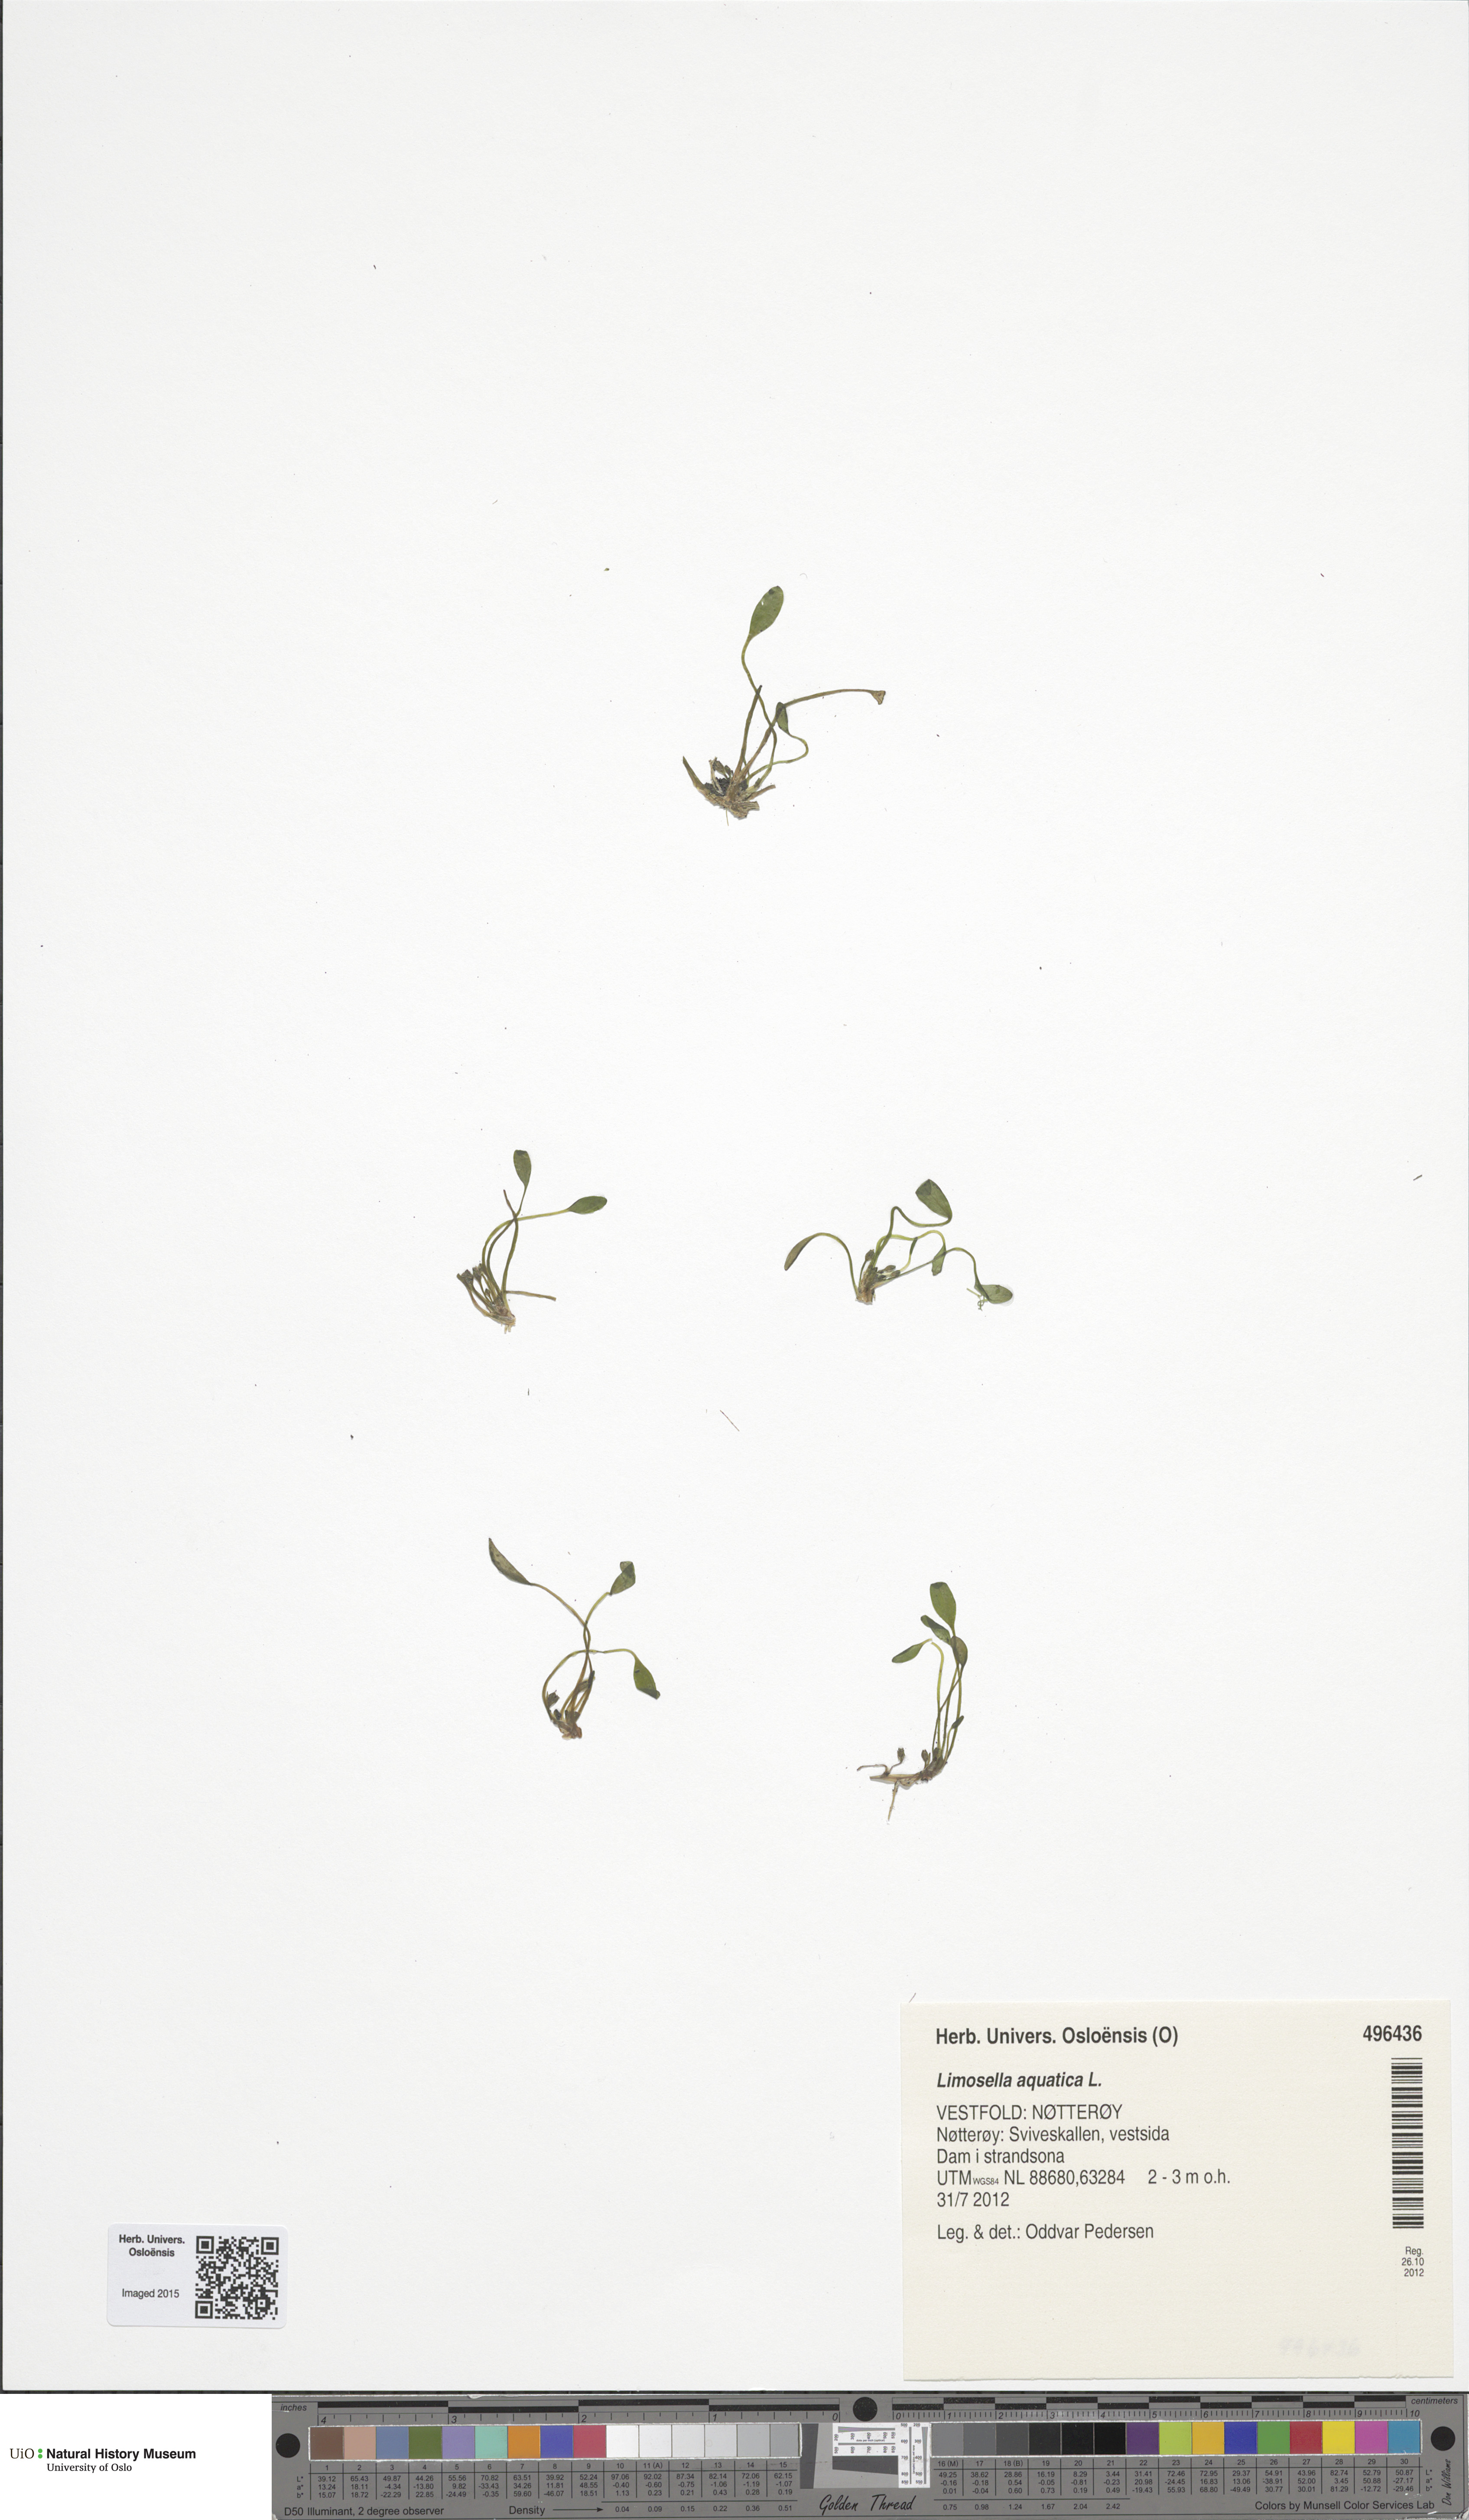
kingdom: Plantae
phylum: Tracheophyta
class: Magnoliopsida
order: Lamiales
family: Scrophulariaceae
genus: Limosella
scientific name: Limosella aquatica
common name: Mudwort
